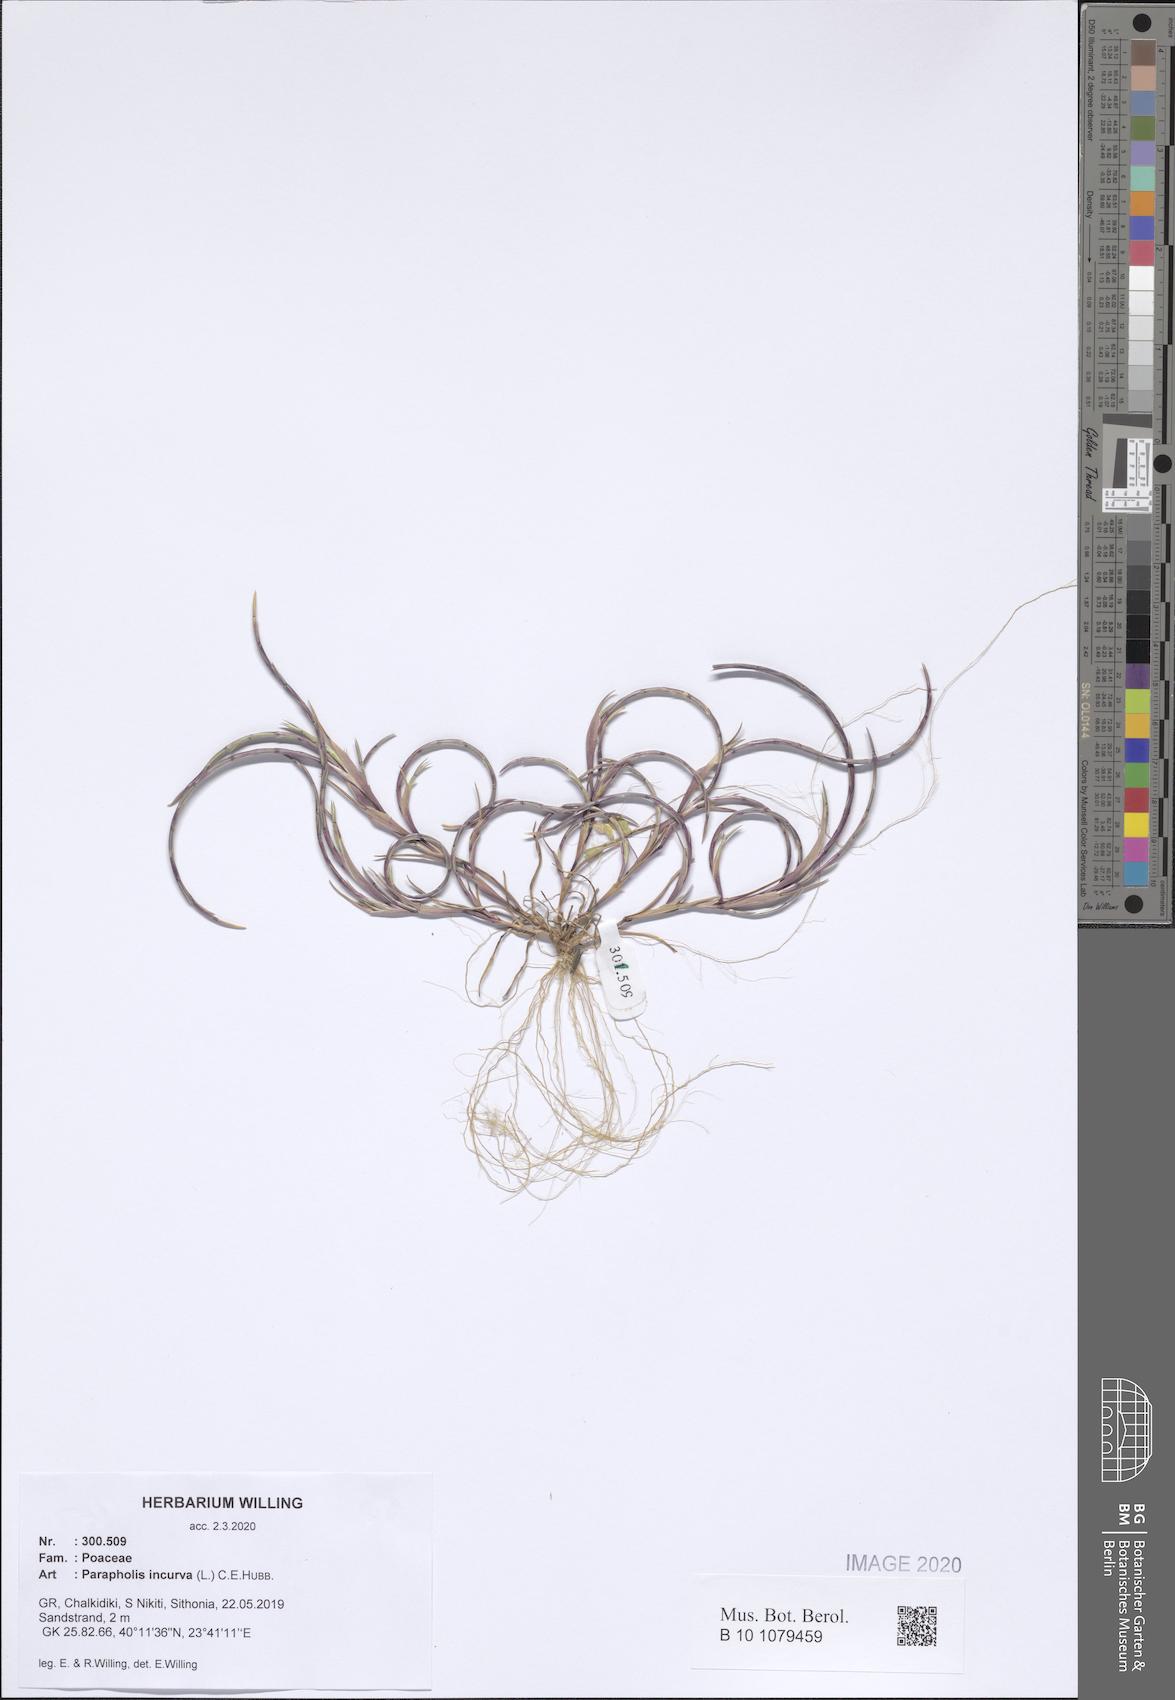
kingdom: Plantae
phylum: Tracheophyta
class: Liliopsida
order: Poales
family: Poaceae
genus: Parapholis
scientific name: Parapholis incurva
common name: Curved sicklegrass
